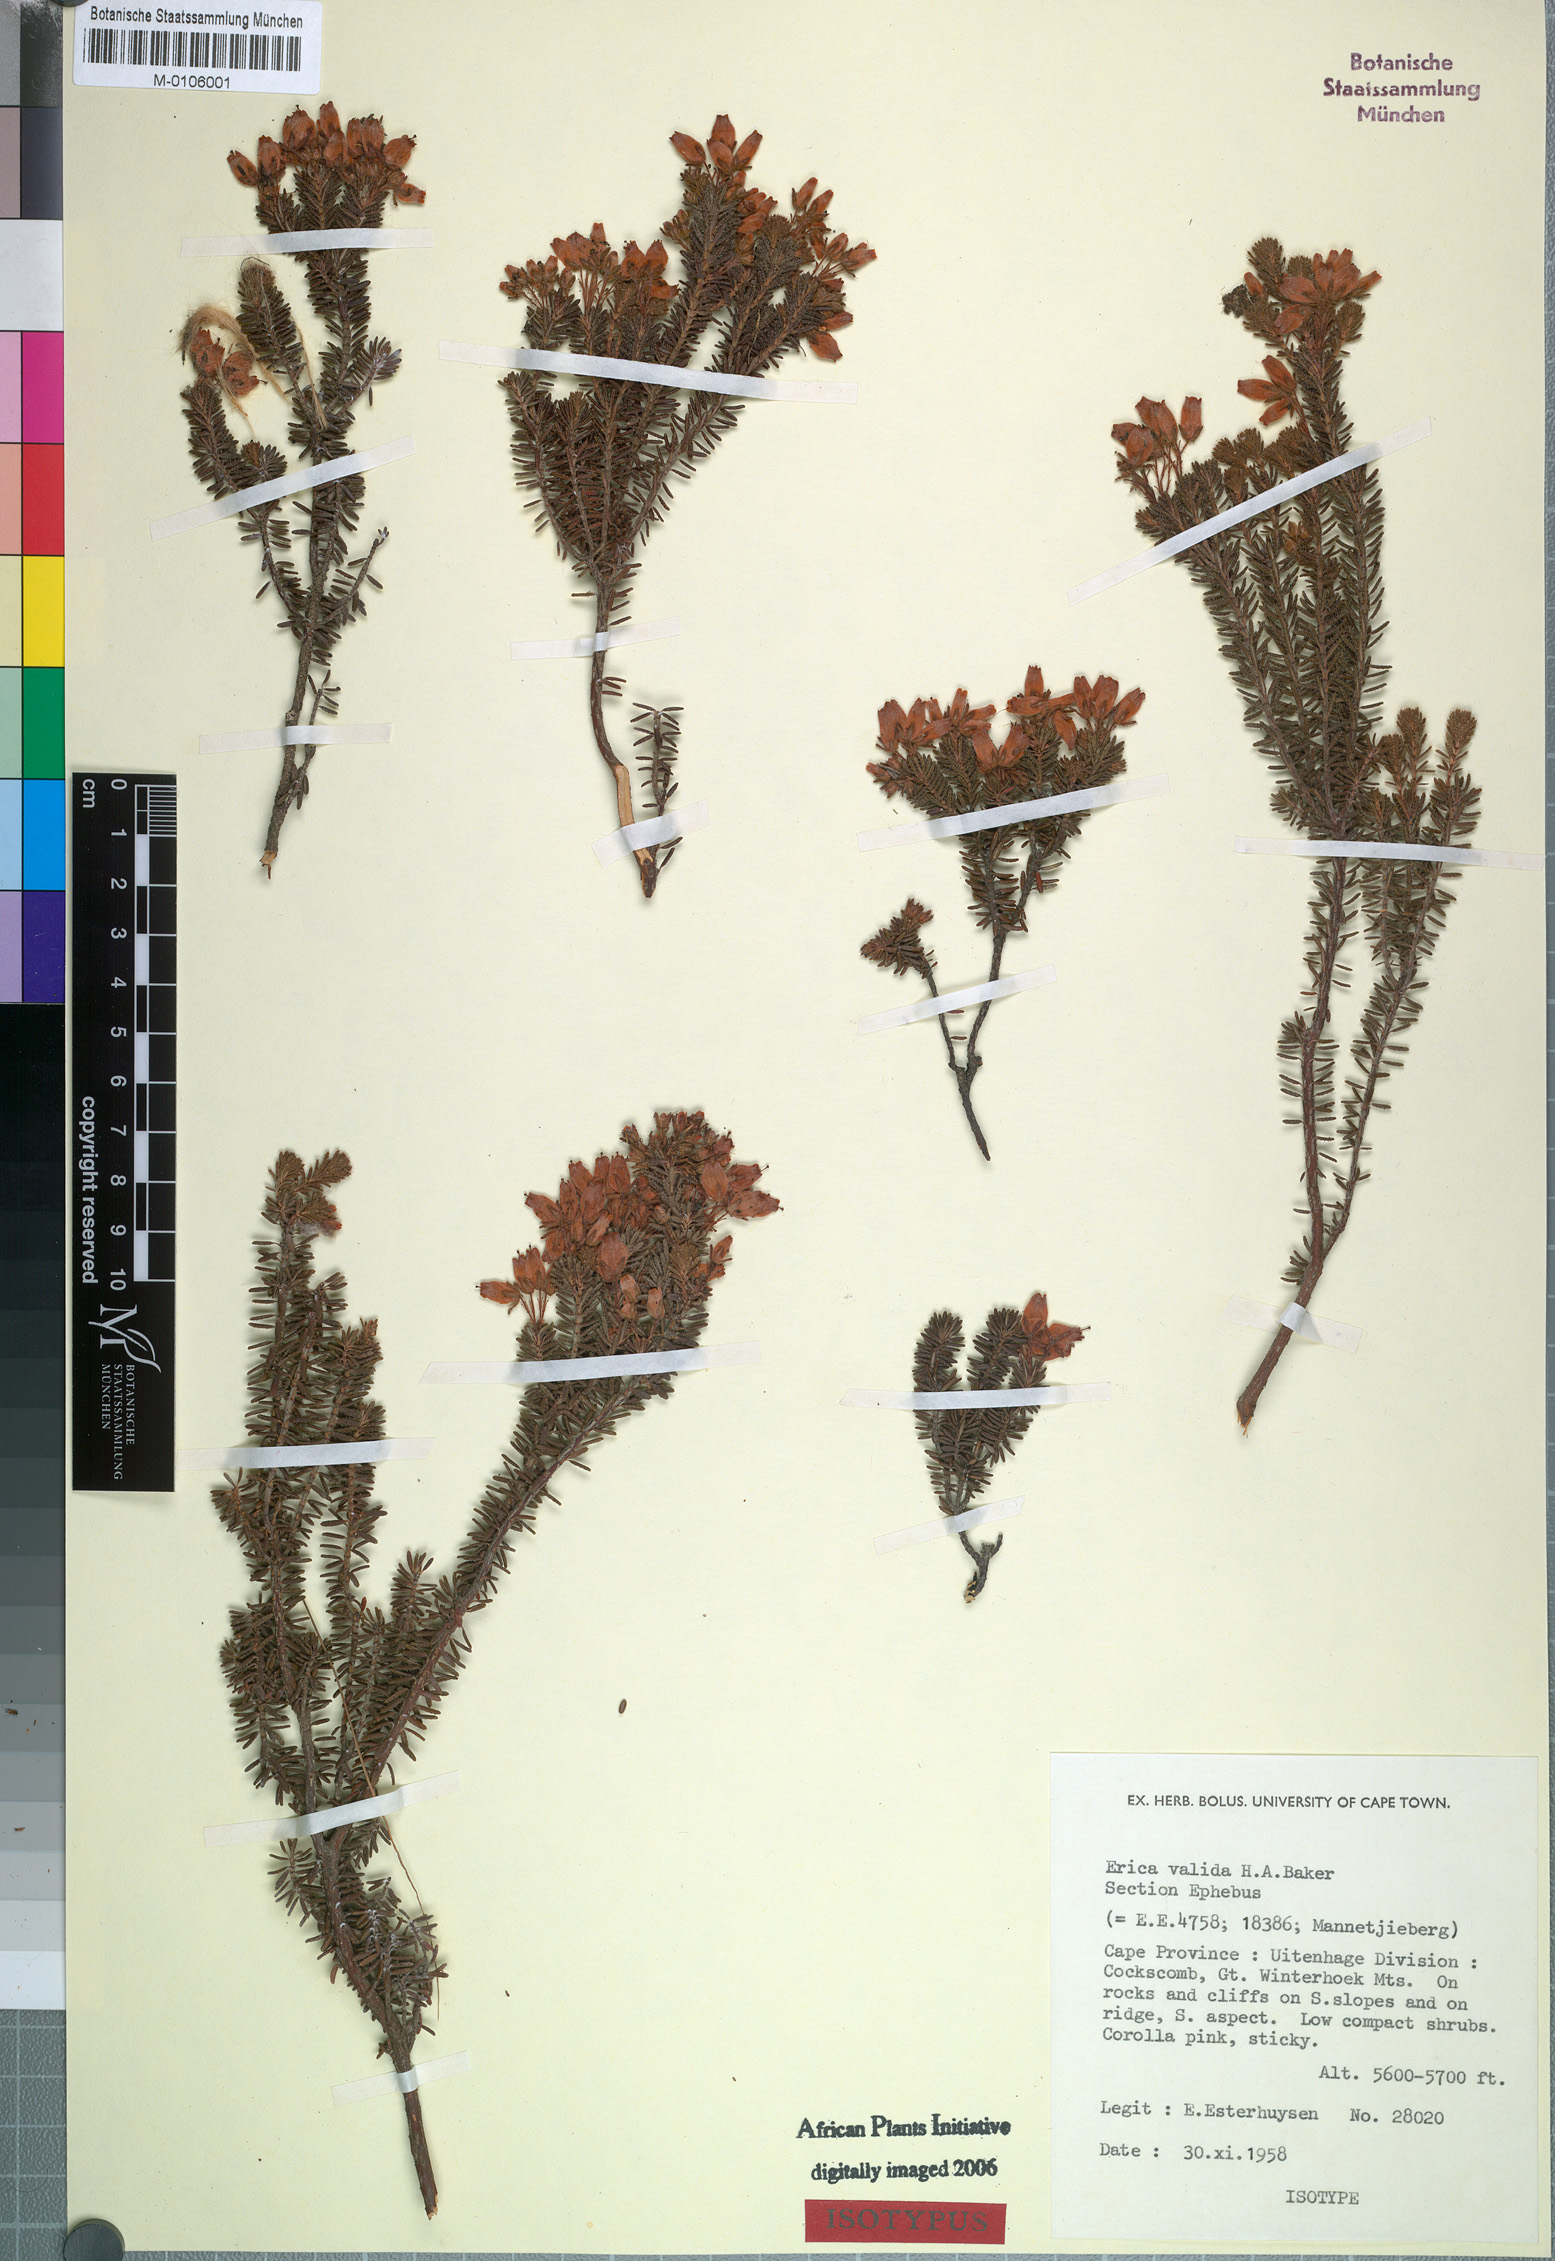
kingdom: Plantae
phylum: Tracheophyta
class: Magnoliopsida
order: Ericales
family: Ericaceae
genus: Erica
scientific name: Erica valida
